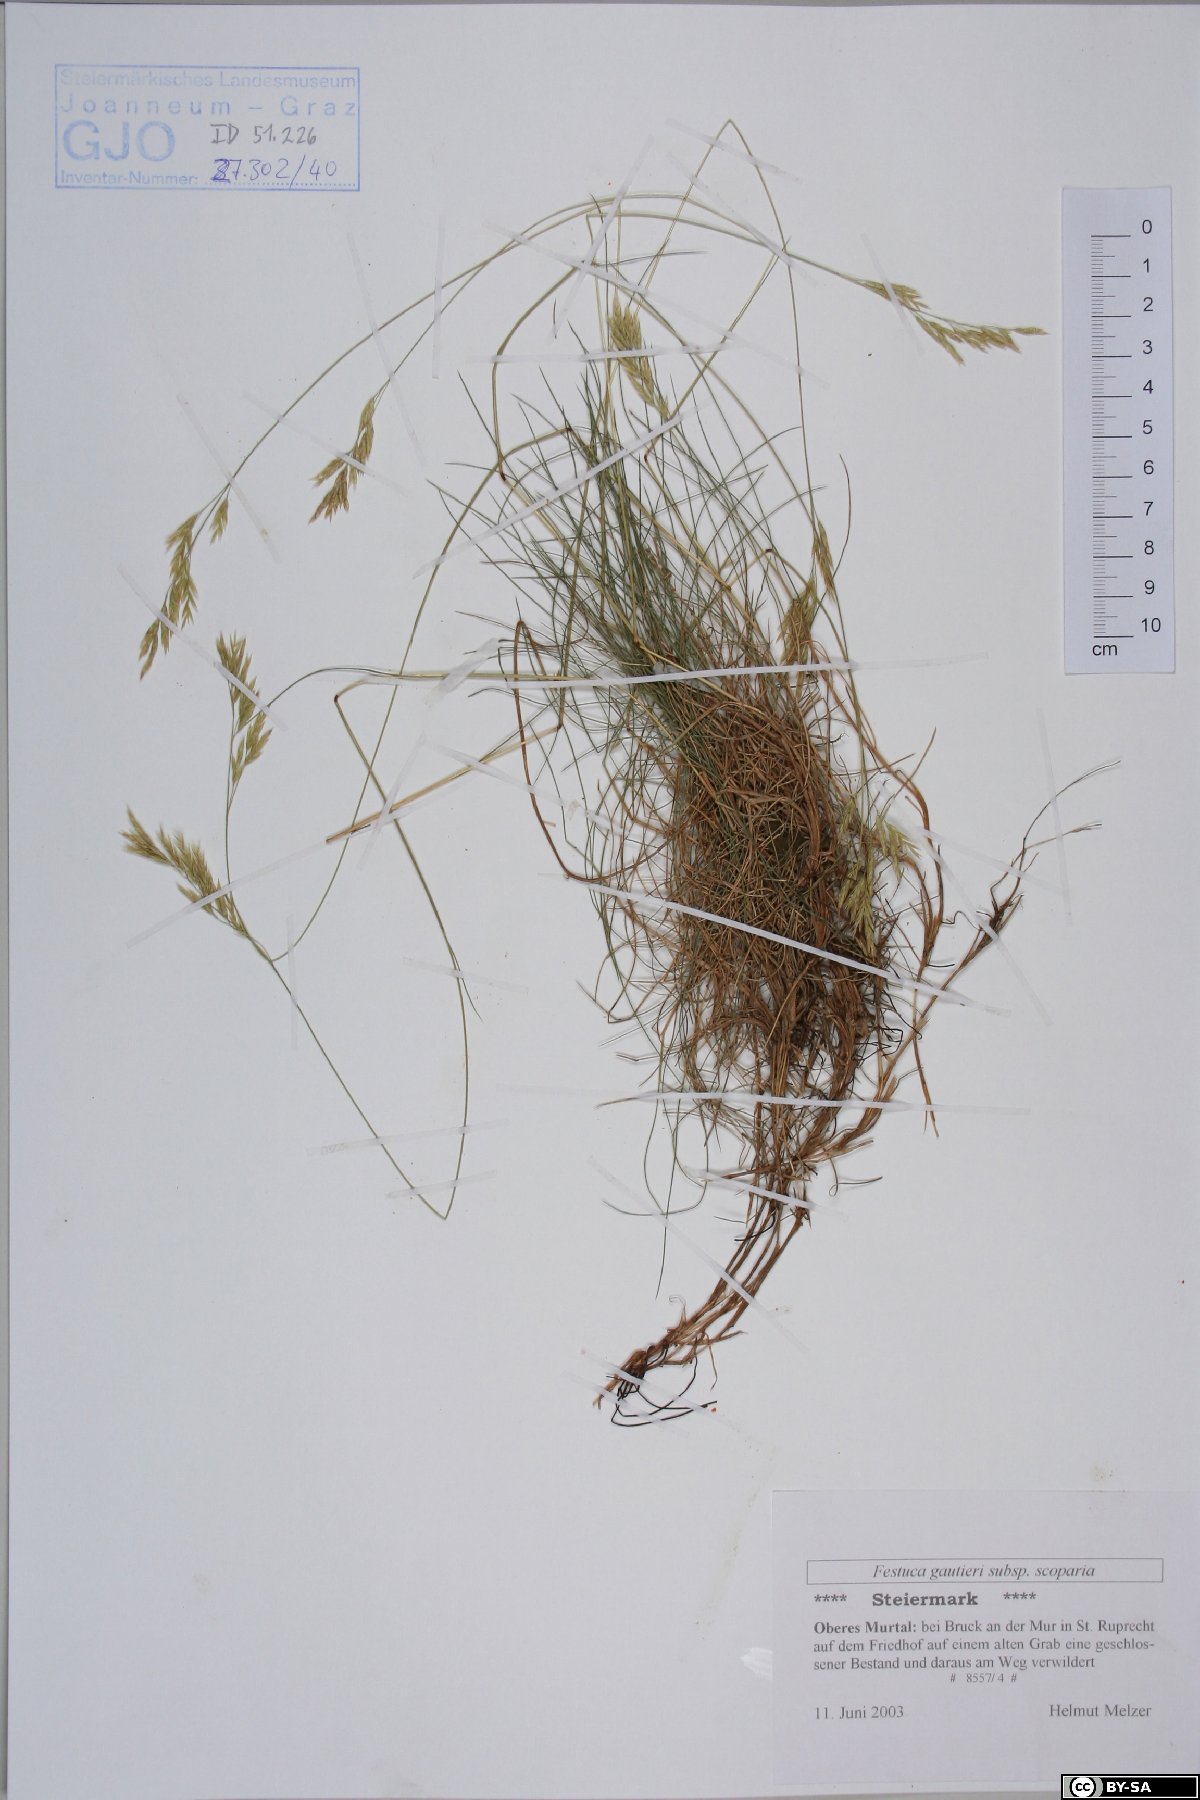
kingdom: Plantae
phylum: Tracheophyta
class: Liliopsida
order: Poales
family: Poaceae
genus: Festuca
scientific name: Festuca gautieri
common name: Spiky fescue
